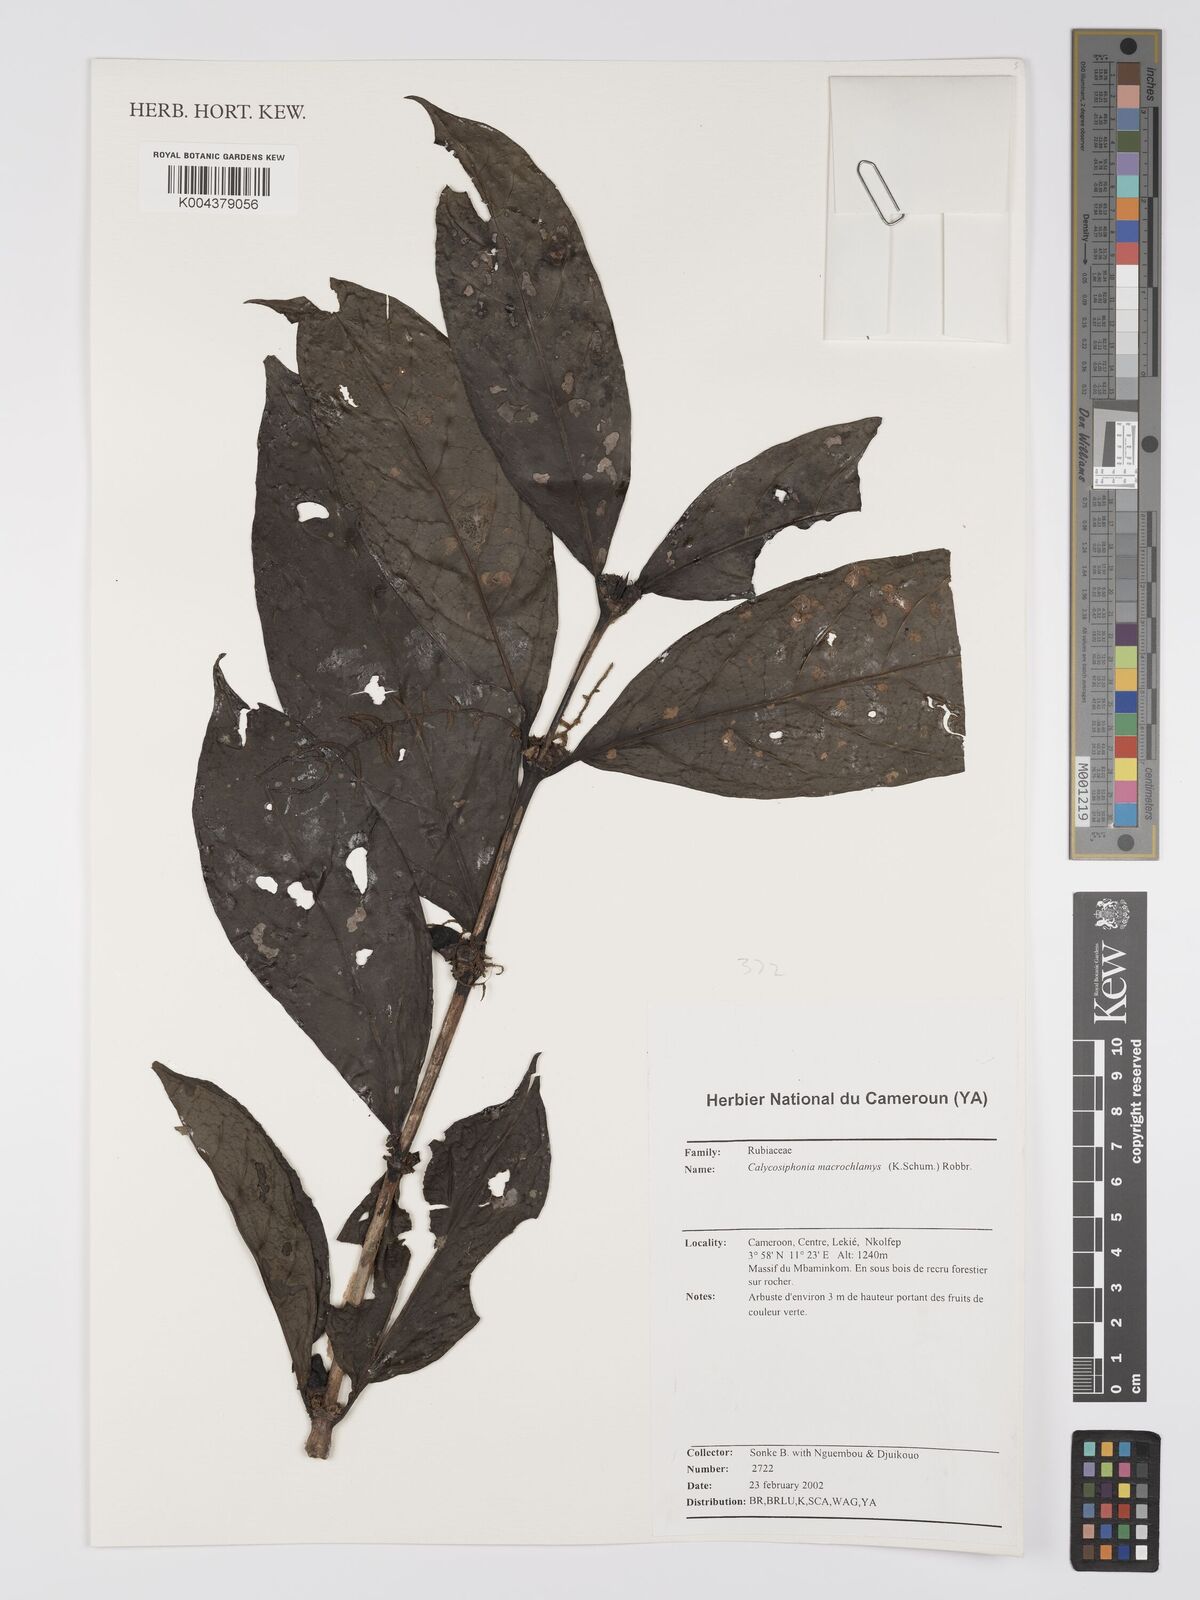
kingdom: Plantae
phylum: Tracheophyta
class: Magnoliopsida
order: Gentianales
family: Rubiaceae
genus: Calycosiphonia
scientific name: Calycosiphonia macrochlamys
